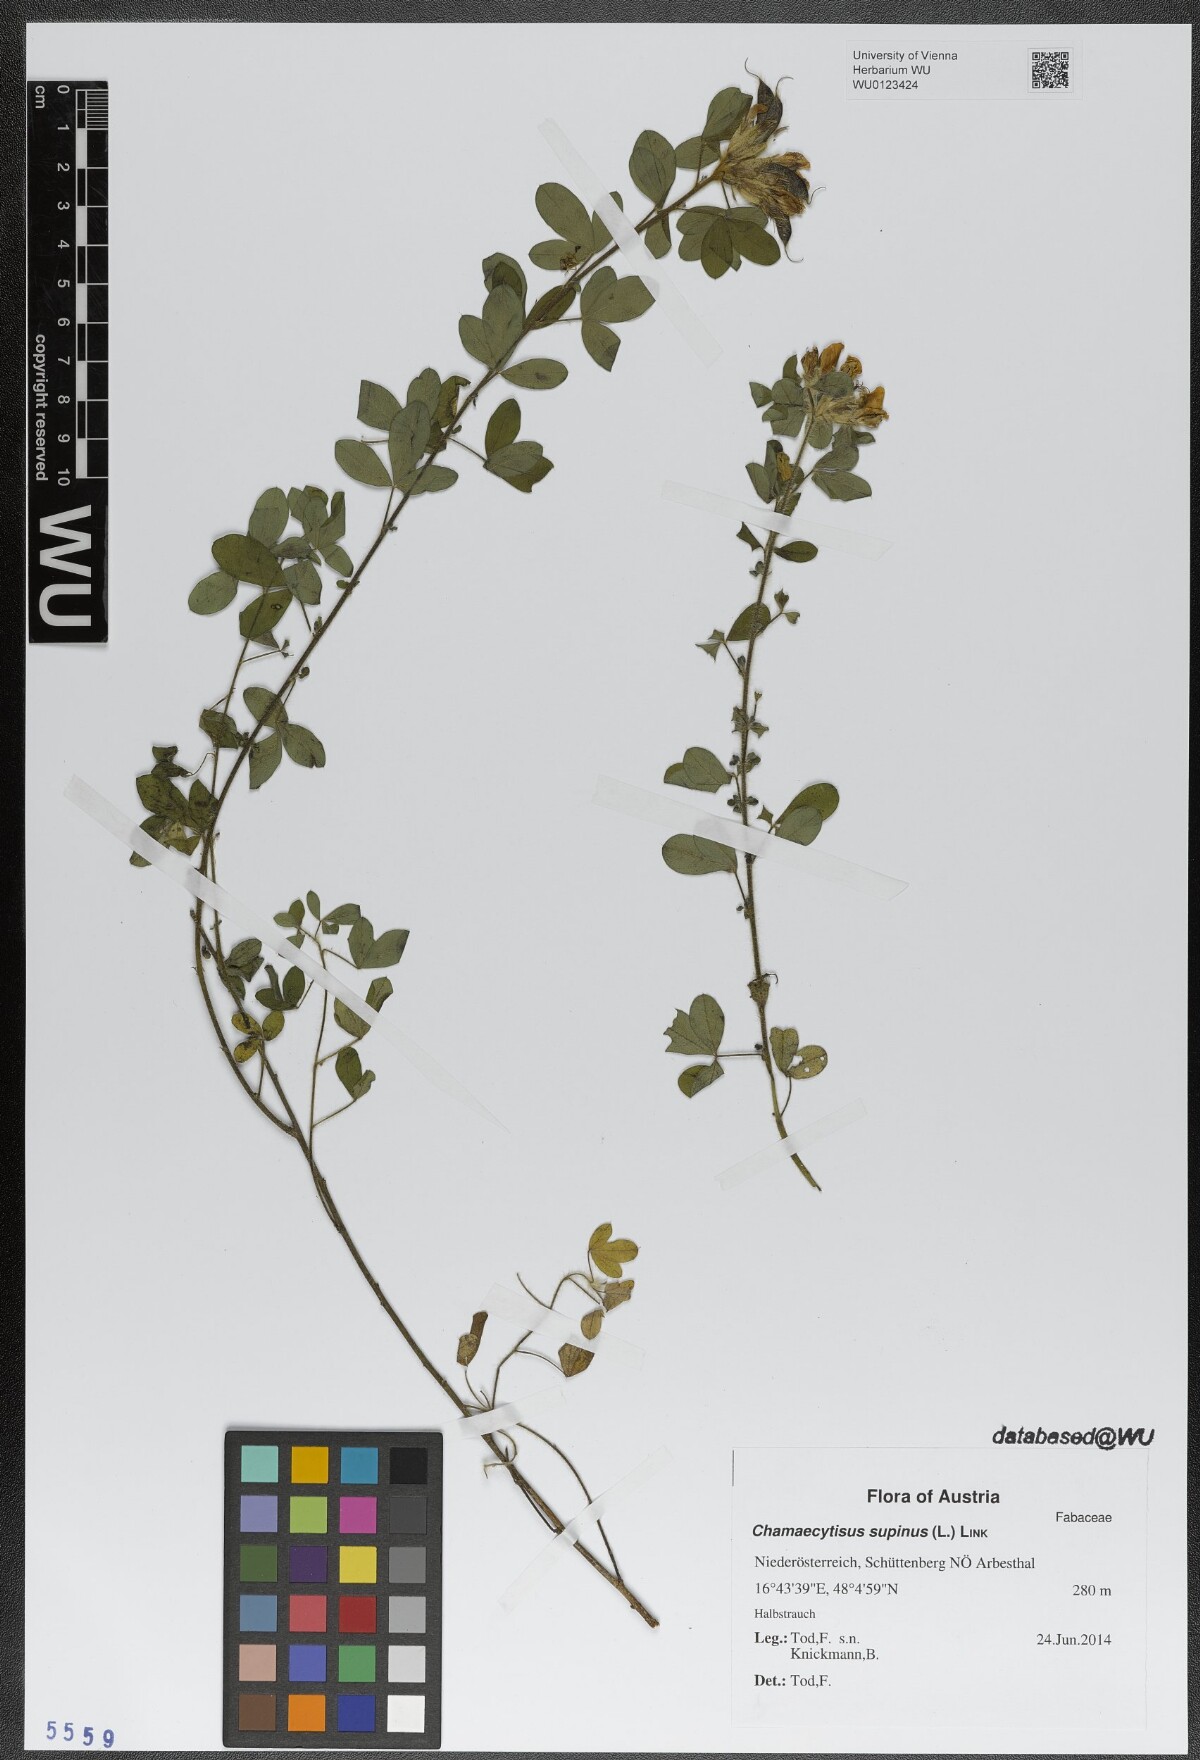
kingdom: Plantae
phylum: Tracheophyta
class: Magnoliopsida
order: Fabales
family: Fabaceae
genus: Chamaecytisus
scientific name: Chamaecytisus supinus
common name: Clustered broom
